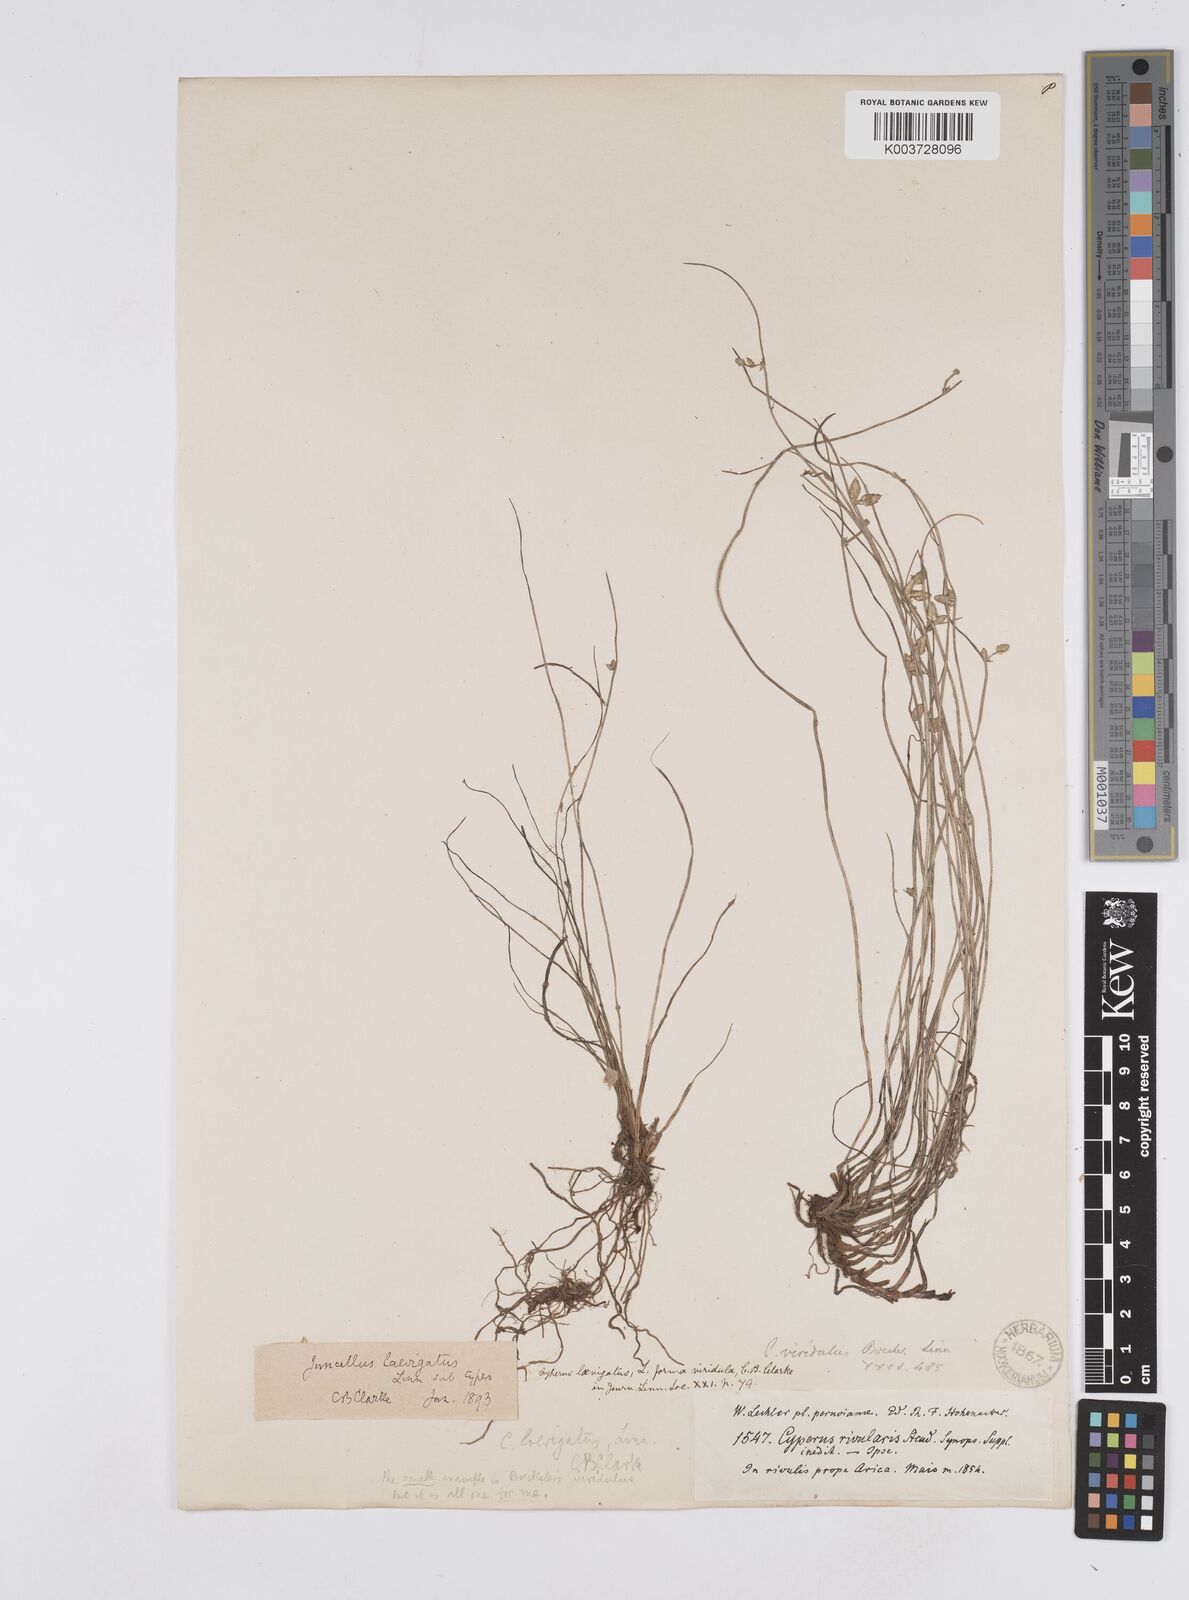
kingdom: Plantae
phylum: Tracheophyta
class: Liliopsida
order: Poales
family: Cyperaceae
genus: Cyperus
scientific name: Cyperus laevigatus
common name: Smooth flat sedge
